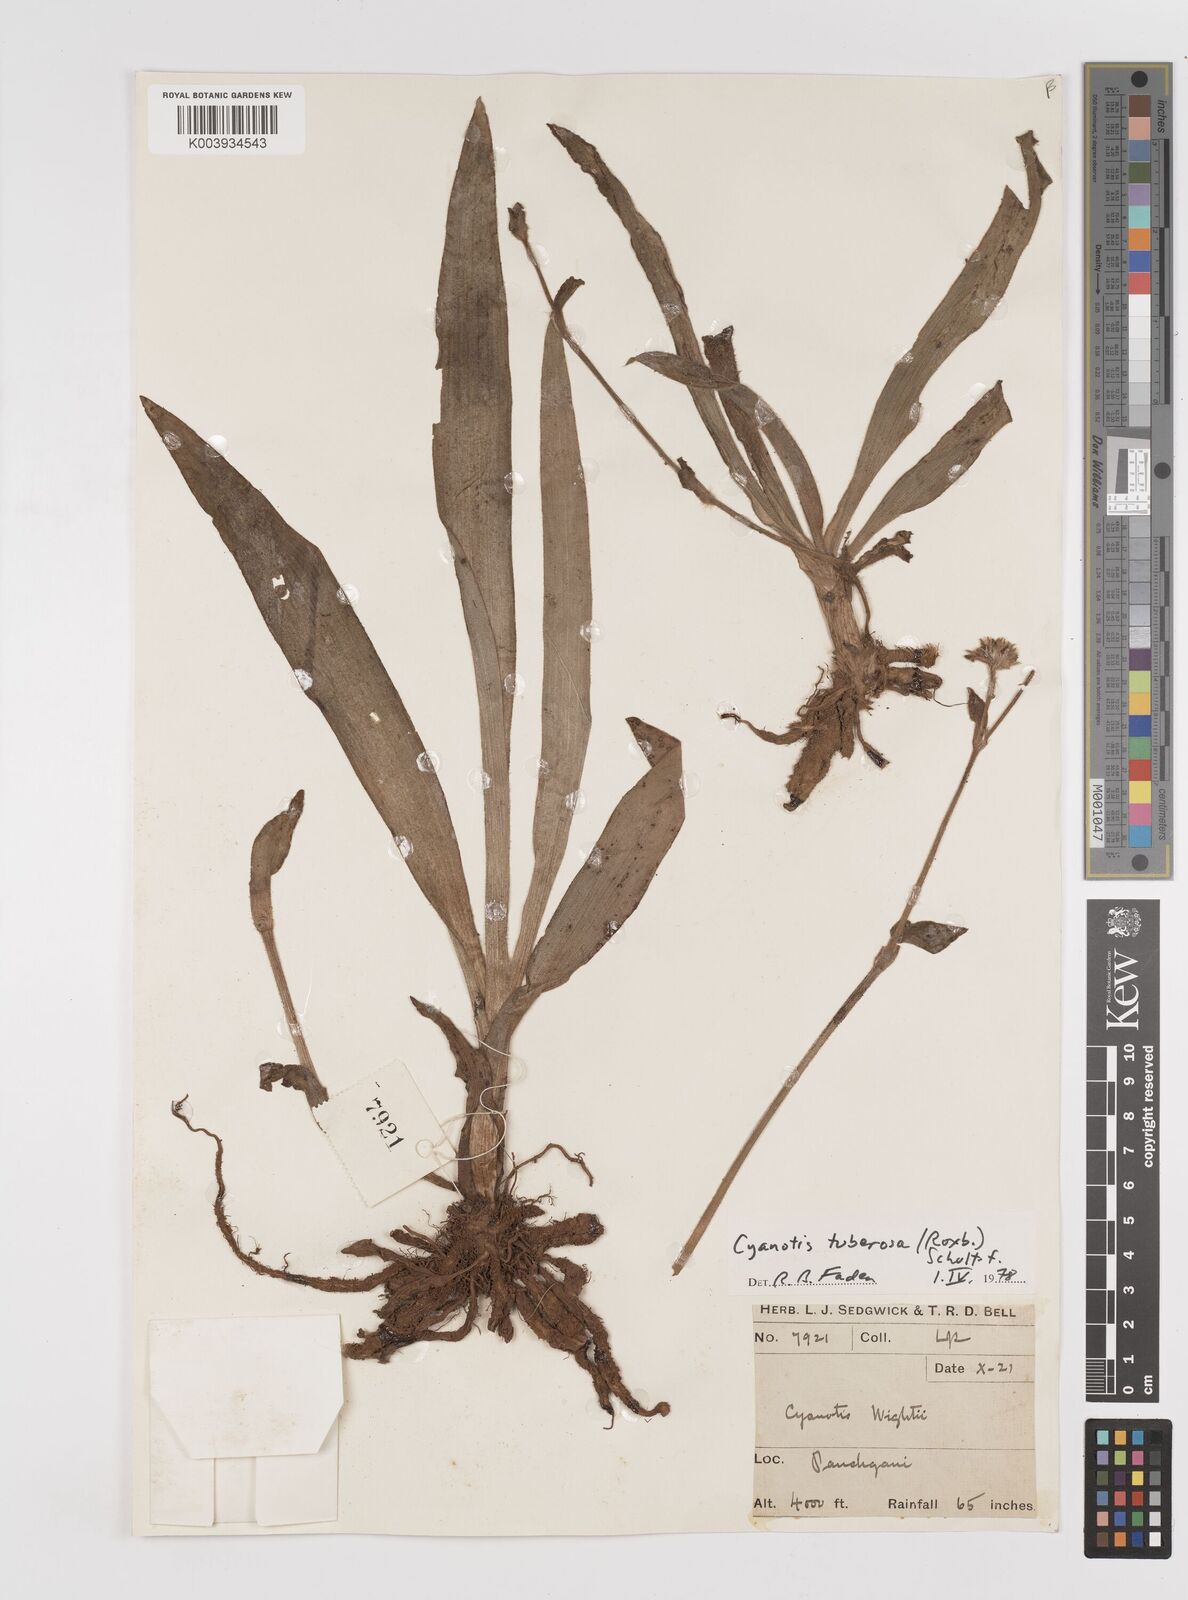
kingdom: Plantae
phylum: Tracheophyta
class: Liliopsida
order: Commelinales
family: Commelinaceae
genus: Cyanotis
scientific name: Cyanotis tuberosa
